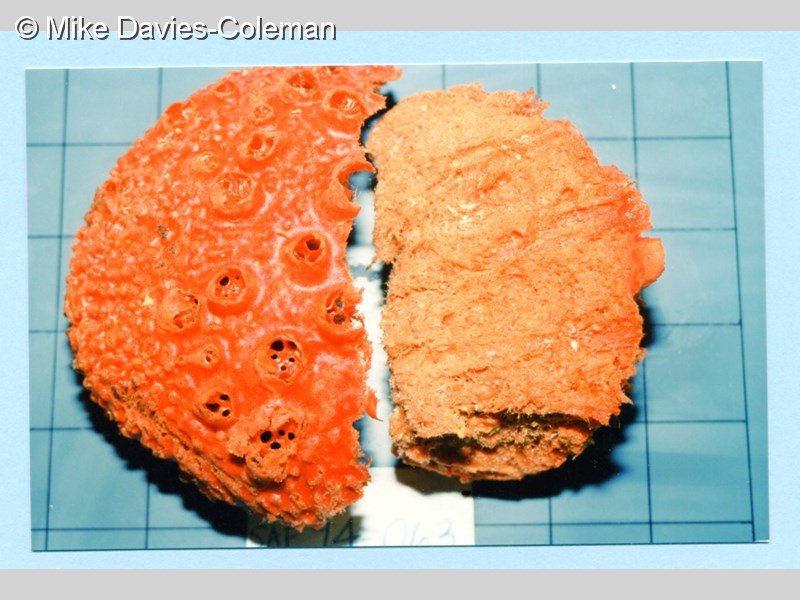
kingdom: Animalia
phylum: Porifera
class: Demospongiae
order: Poecilosclerida
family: Acarnidae
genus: Acarnus
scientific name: Acarnus
